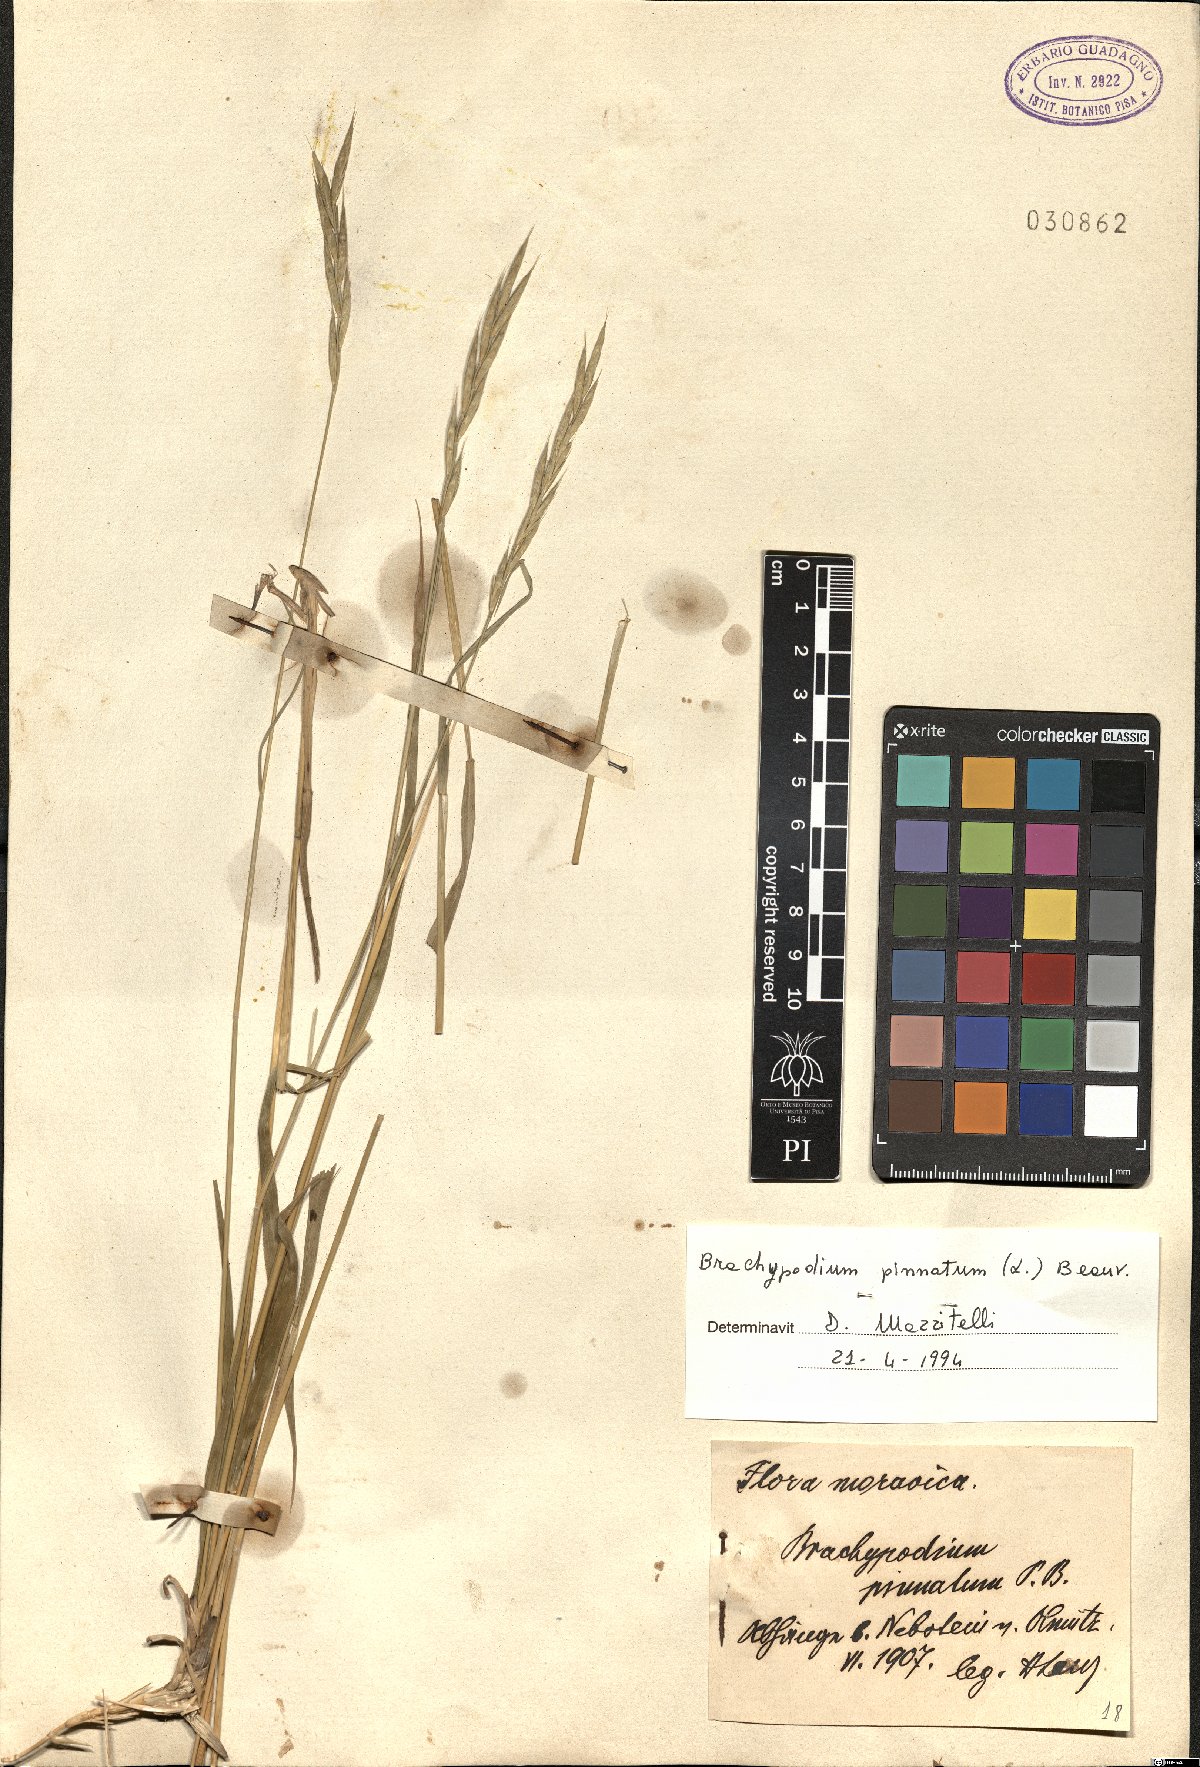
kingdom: Plantae
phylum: Tracheophyta
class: Liliopsida
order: Poales
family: Poaceae
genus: Brachypodium
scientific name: Brachypodium pinnatum
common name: Tor grass
